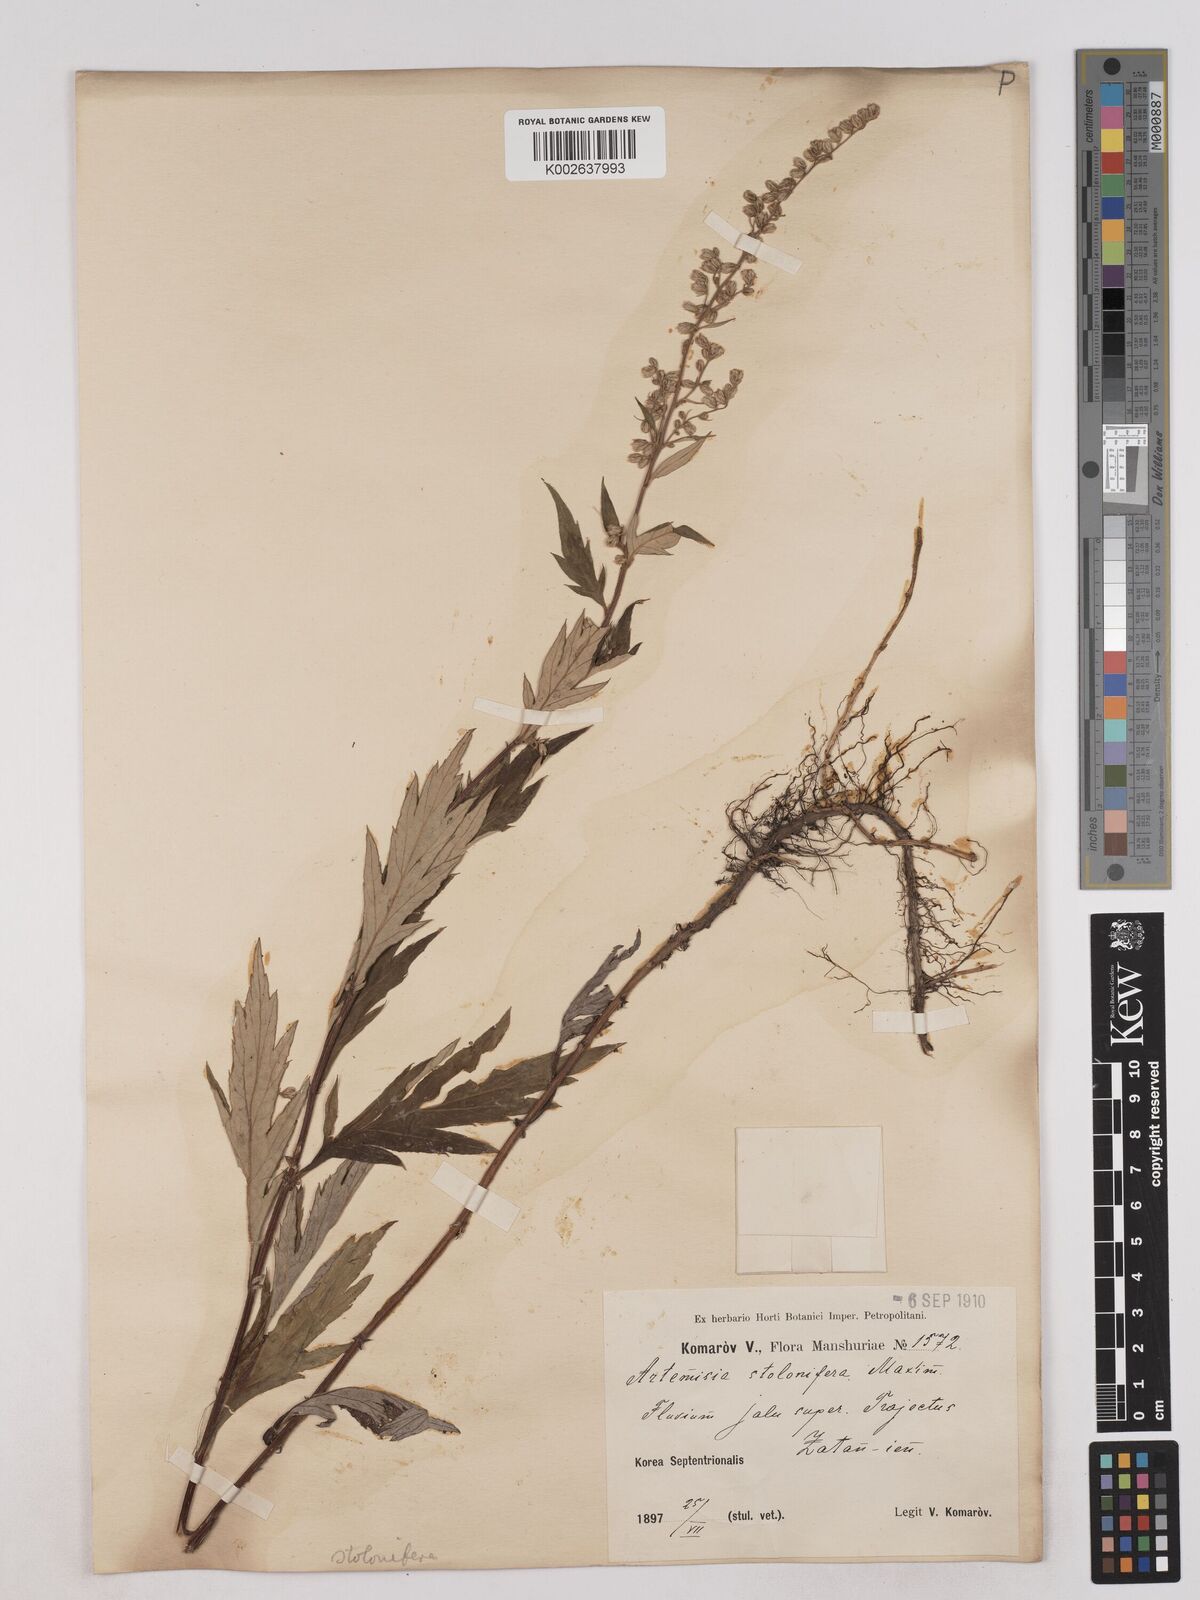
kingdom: Plantae
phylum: Tracheophyta
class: Magnoliopsida
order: Asterales
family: Asteraceae
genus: Artemisia
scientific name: Artemisia igniaria
